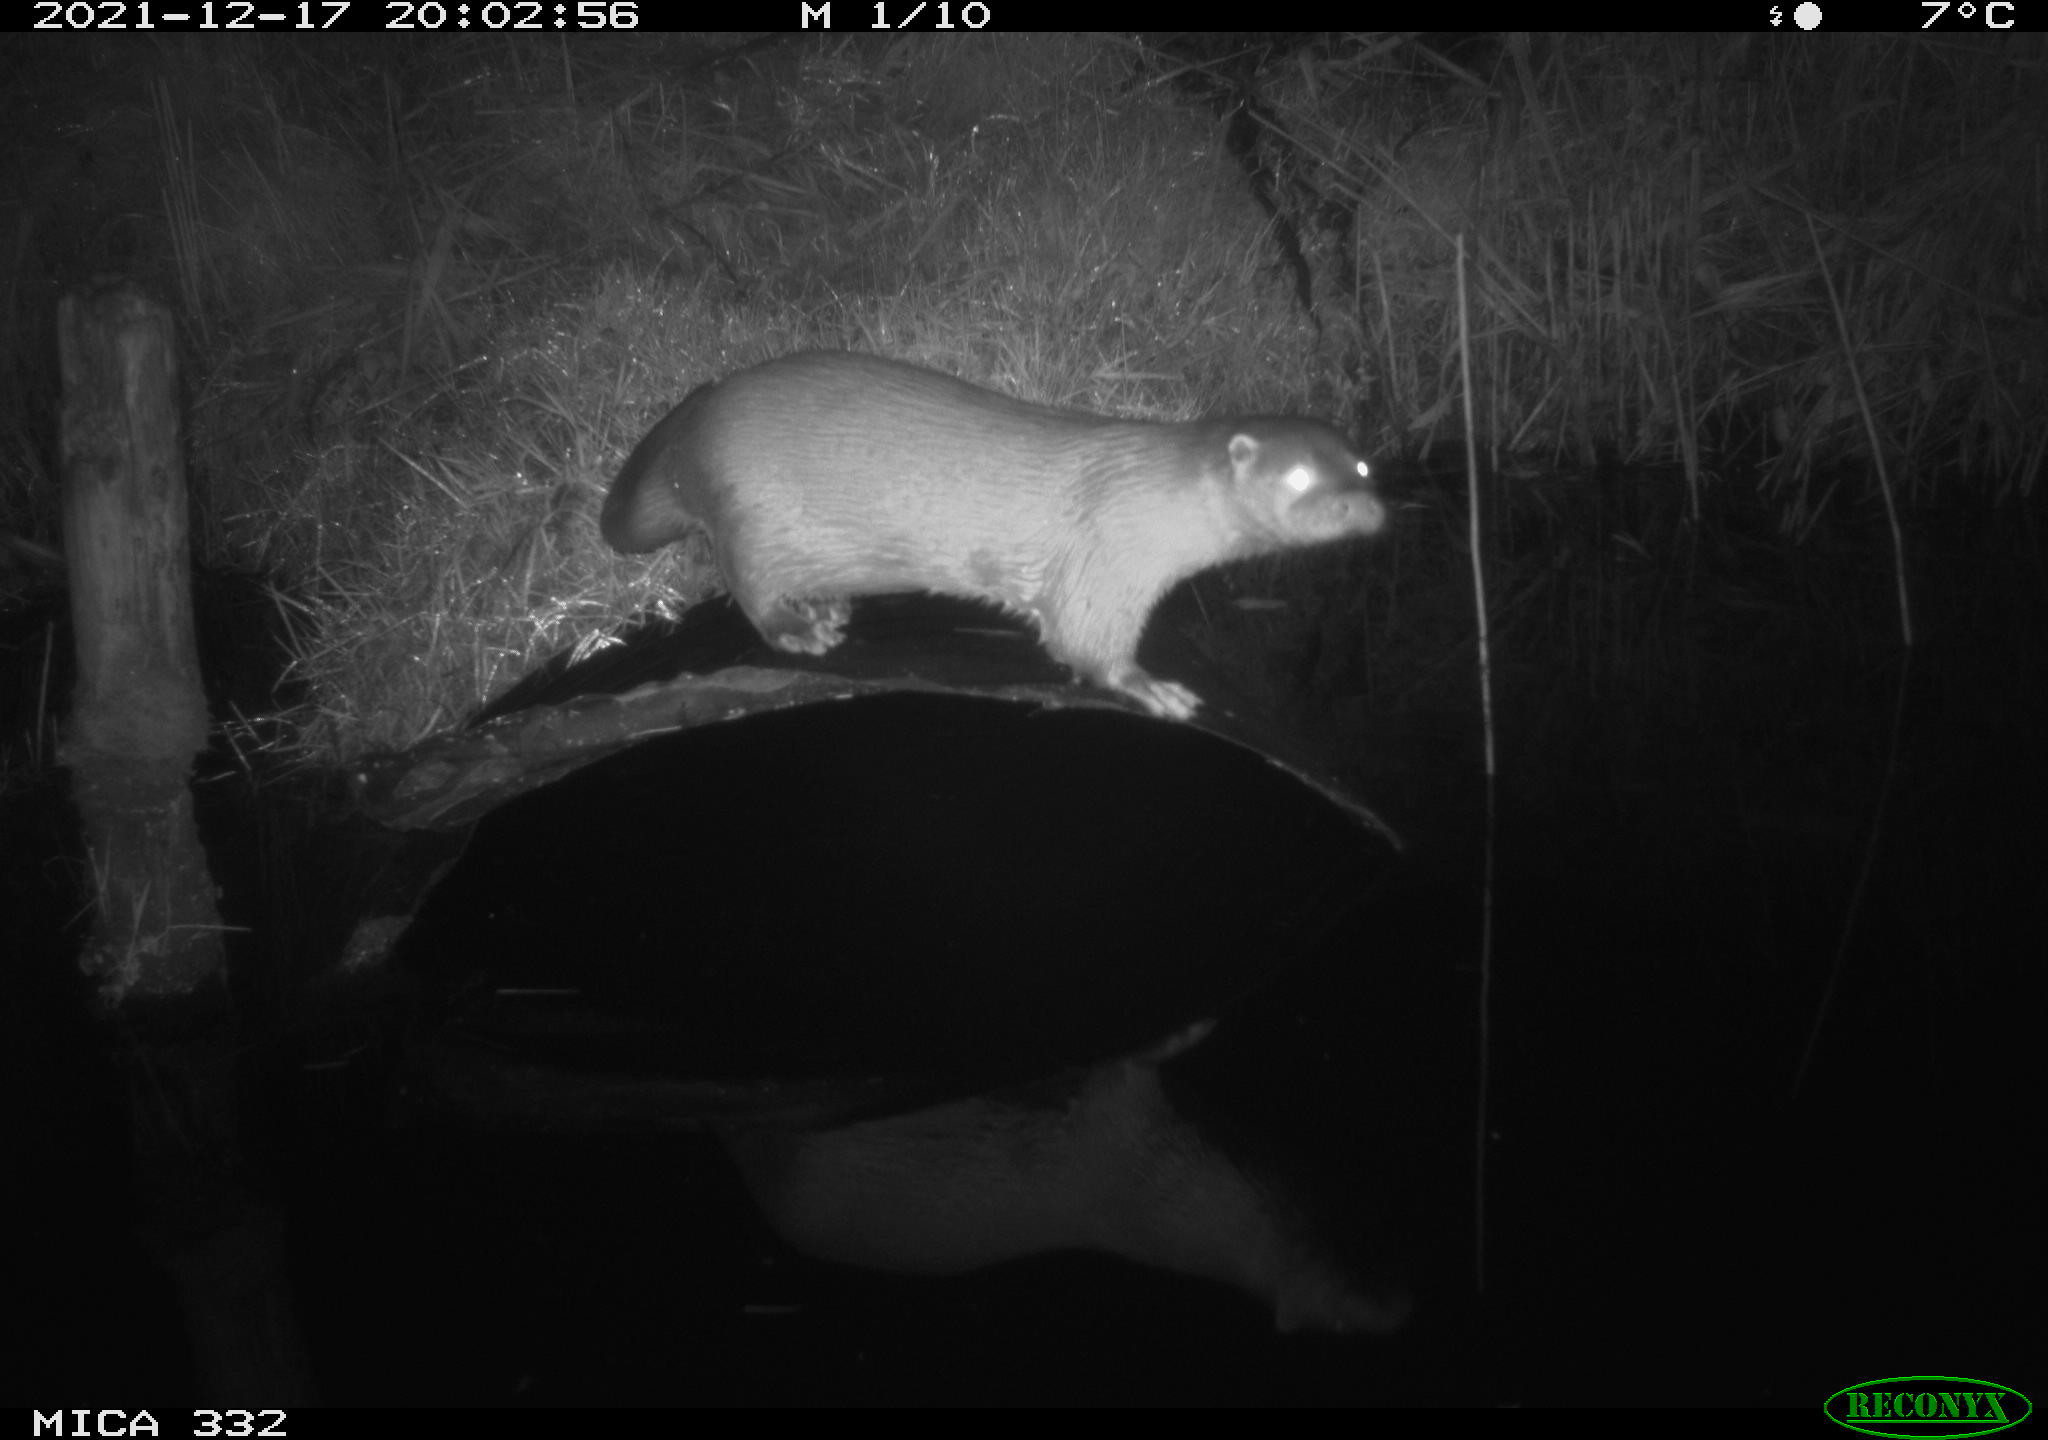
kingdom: Animalia
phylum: Chordata
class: Mammalia
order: Carnivora
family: Mustelidae
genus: Lutra
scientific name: Lutra lutra
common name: European otter
